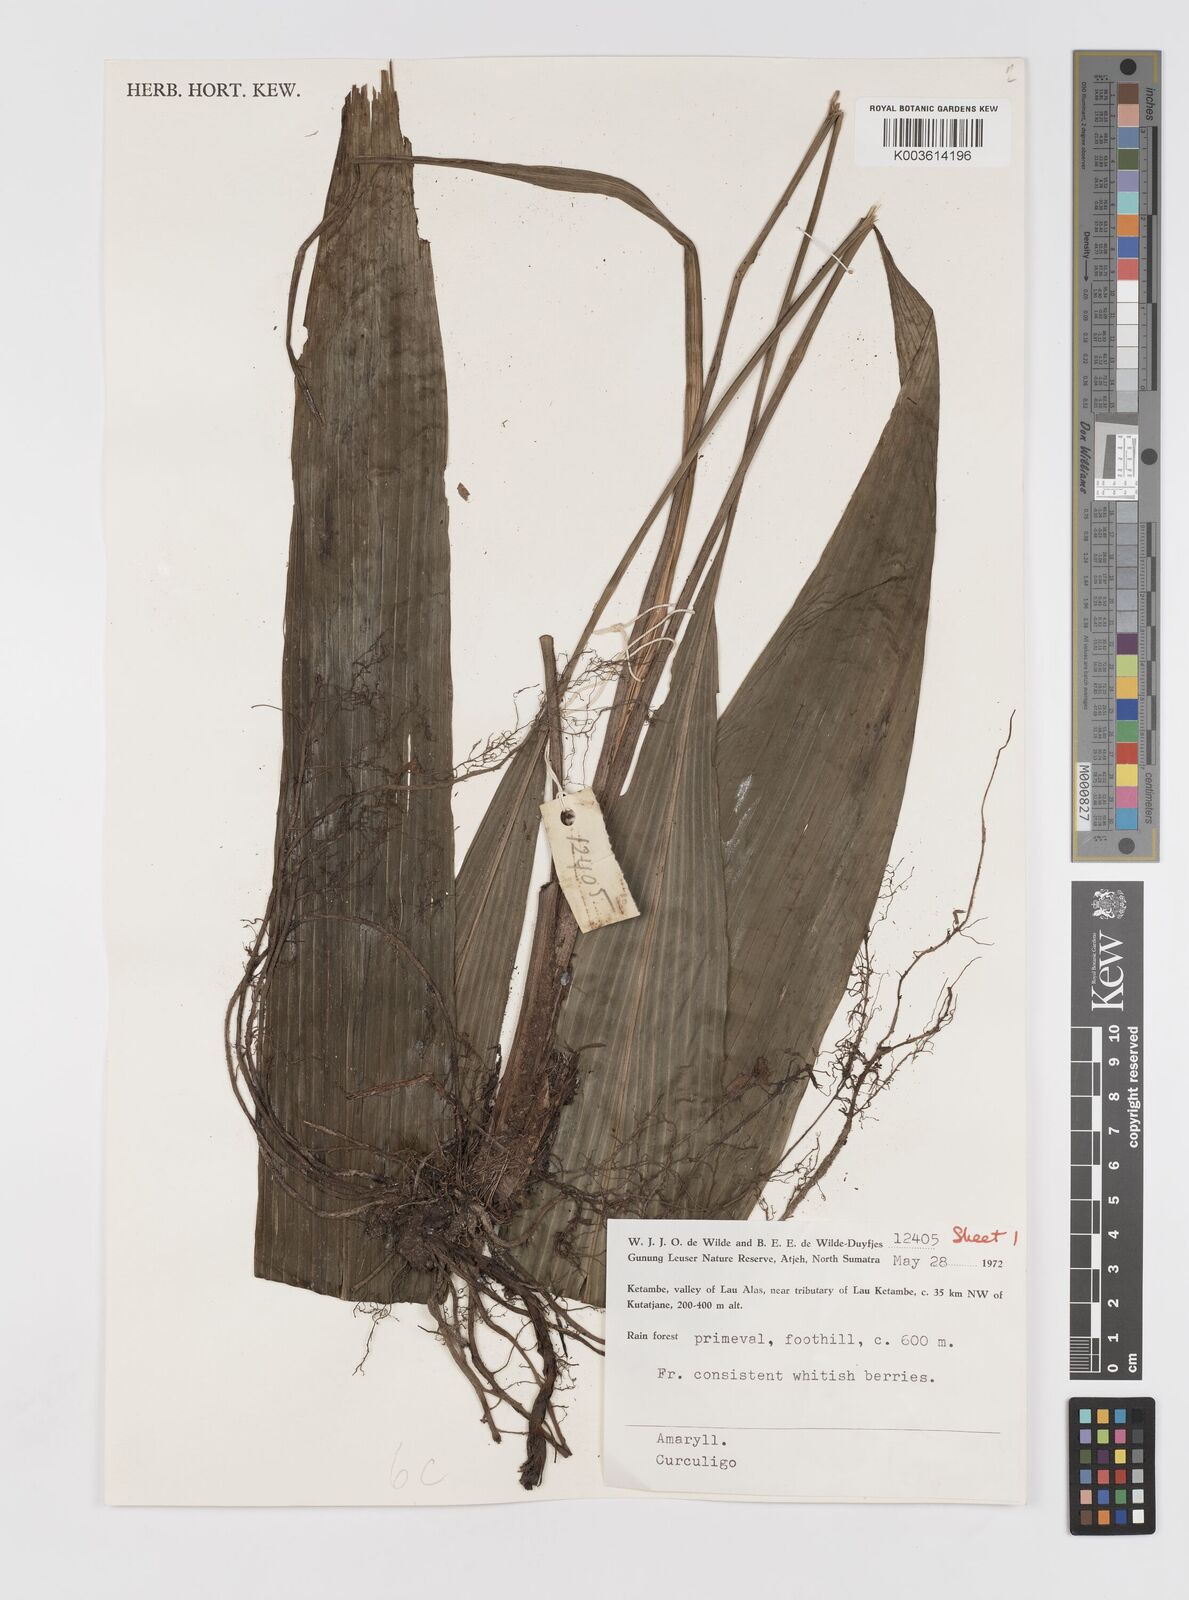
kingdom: Plantae
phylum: Tracheophyta
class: Liliopsida
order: Asparagales
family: Hypoxidaceae
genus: Curculigo
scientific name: Curculigo
